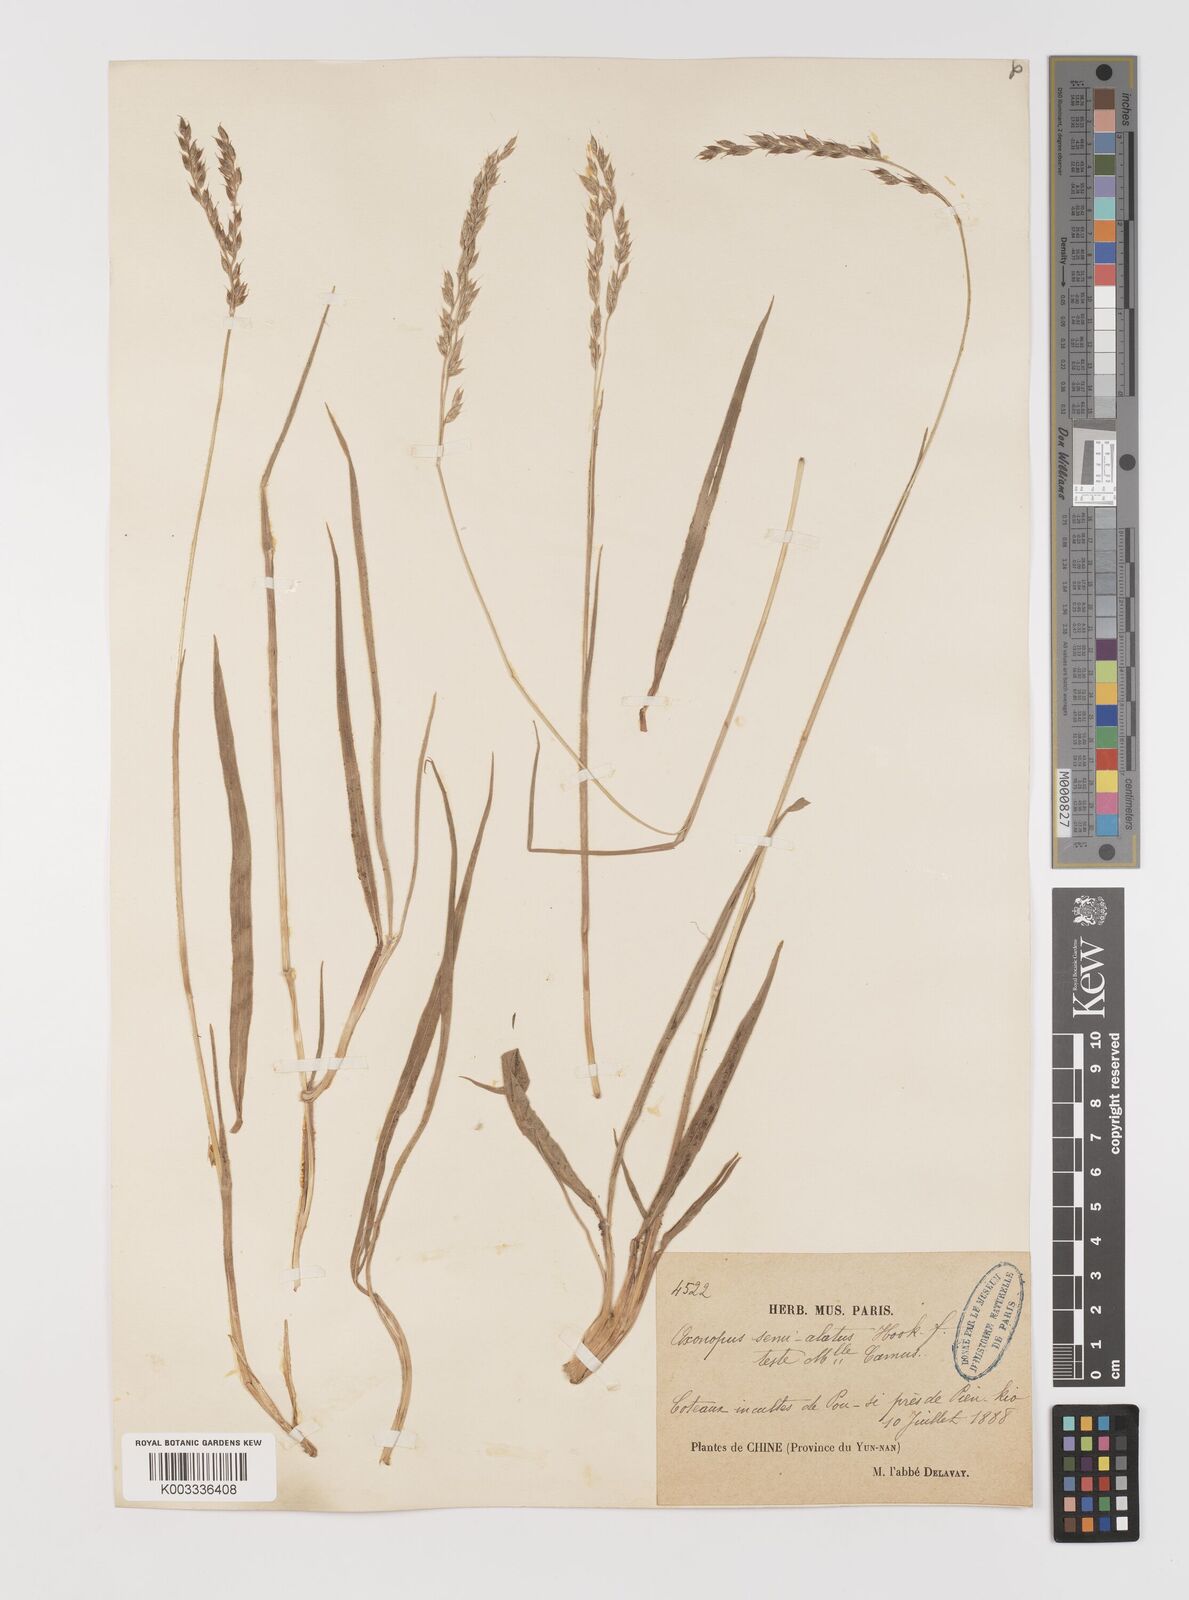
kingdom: Plantae
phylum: Tracheophyta
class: Liliopsida
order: Poales
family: Poaceae
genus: Alloteropsis
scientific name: Alloteropsis semialata
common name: Cockatoo grass
